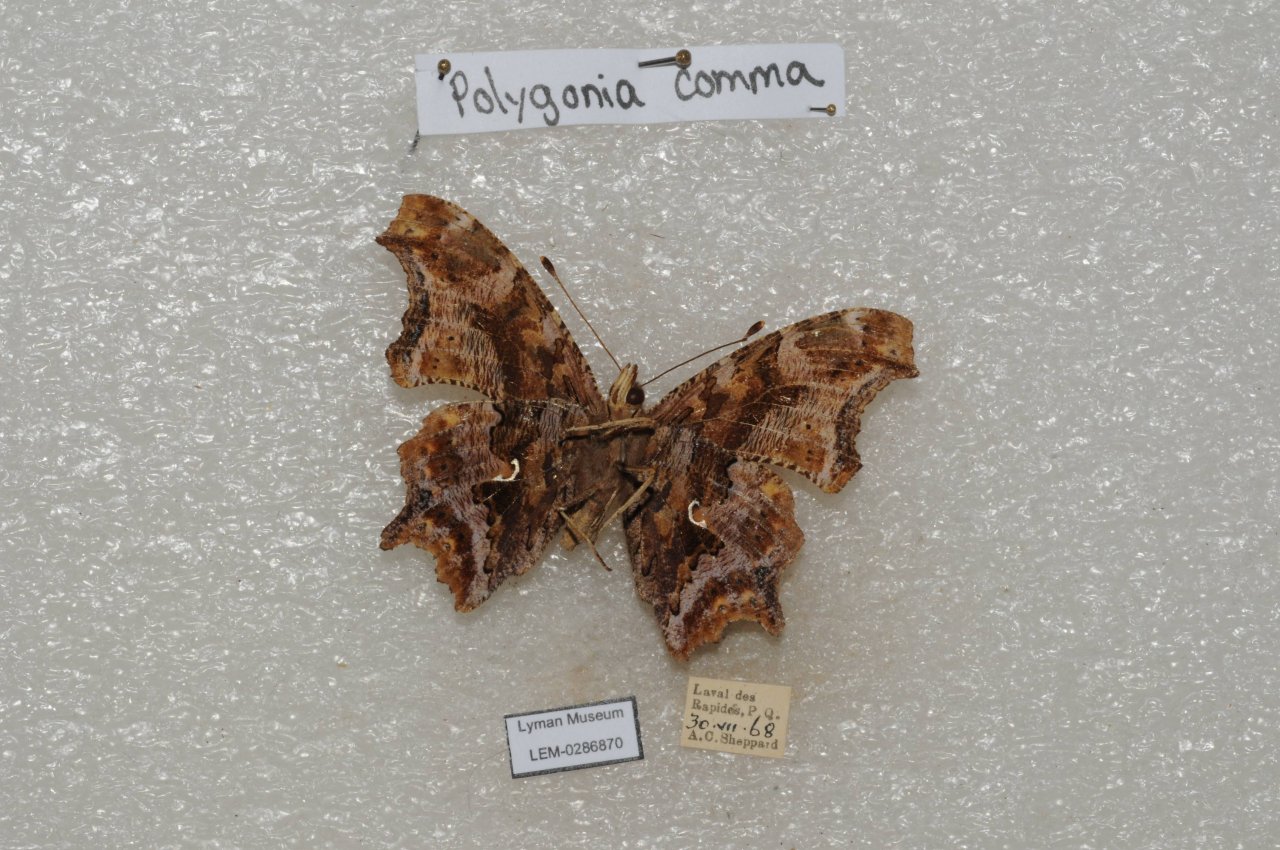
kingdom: Animalia
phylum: Arthropoda
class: Insecta
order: Lepidoptera
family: Nymphalidae
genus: Polygonia
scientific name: Polygonia comma
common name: Eastern Comma
